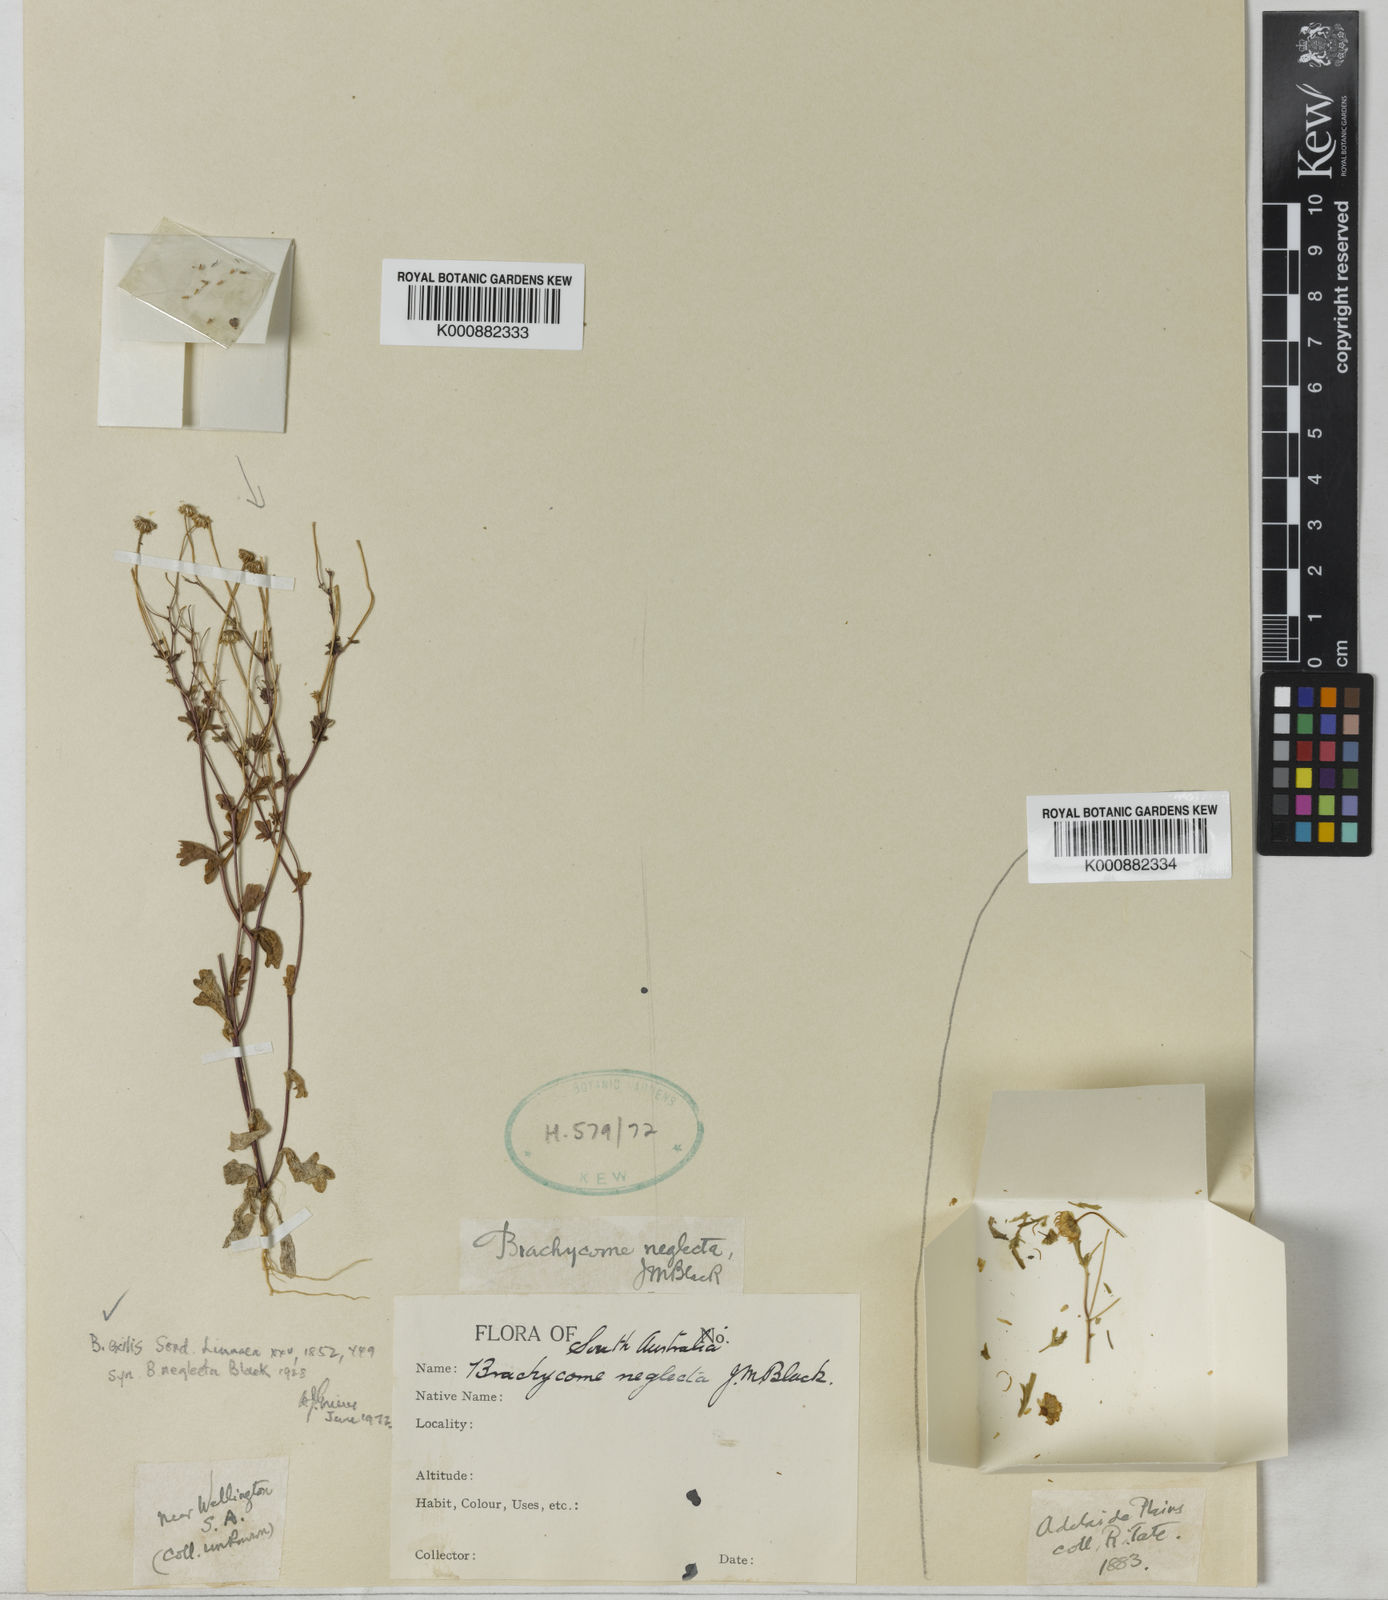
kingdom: Plantae
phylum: Tracheophyta
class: Magnoliopsida
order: Asterales
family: Asteraceae
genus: Brachyscome
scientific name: Brachyscome exilis
